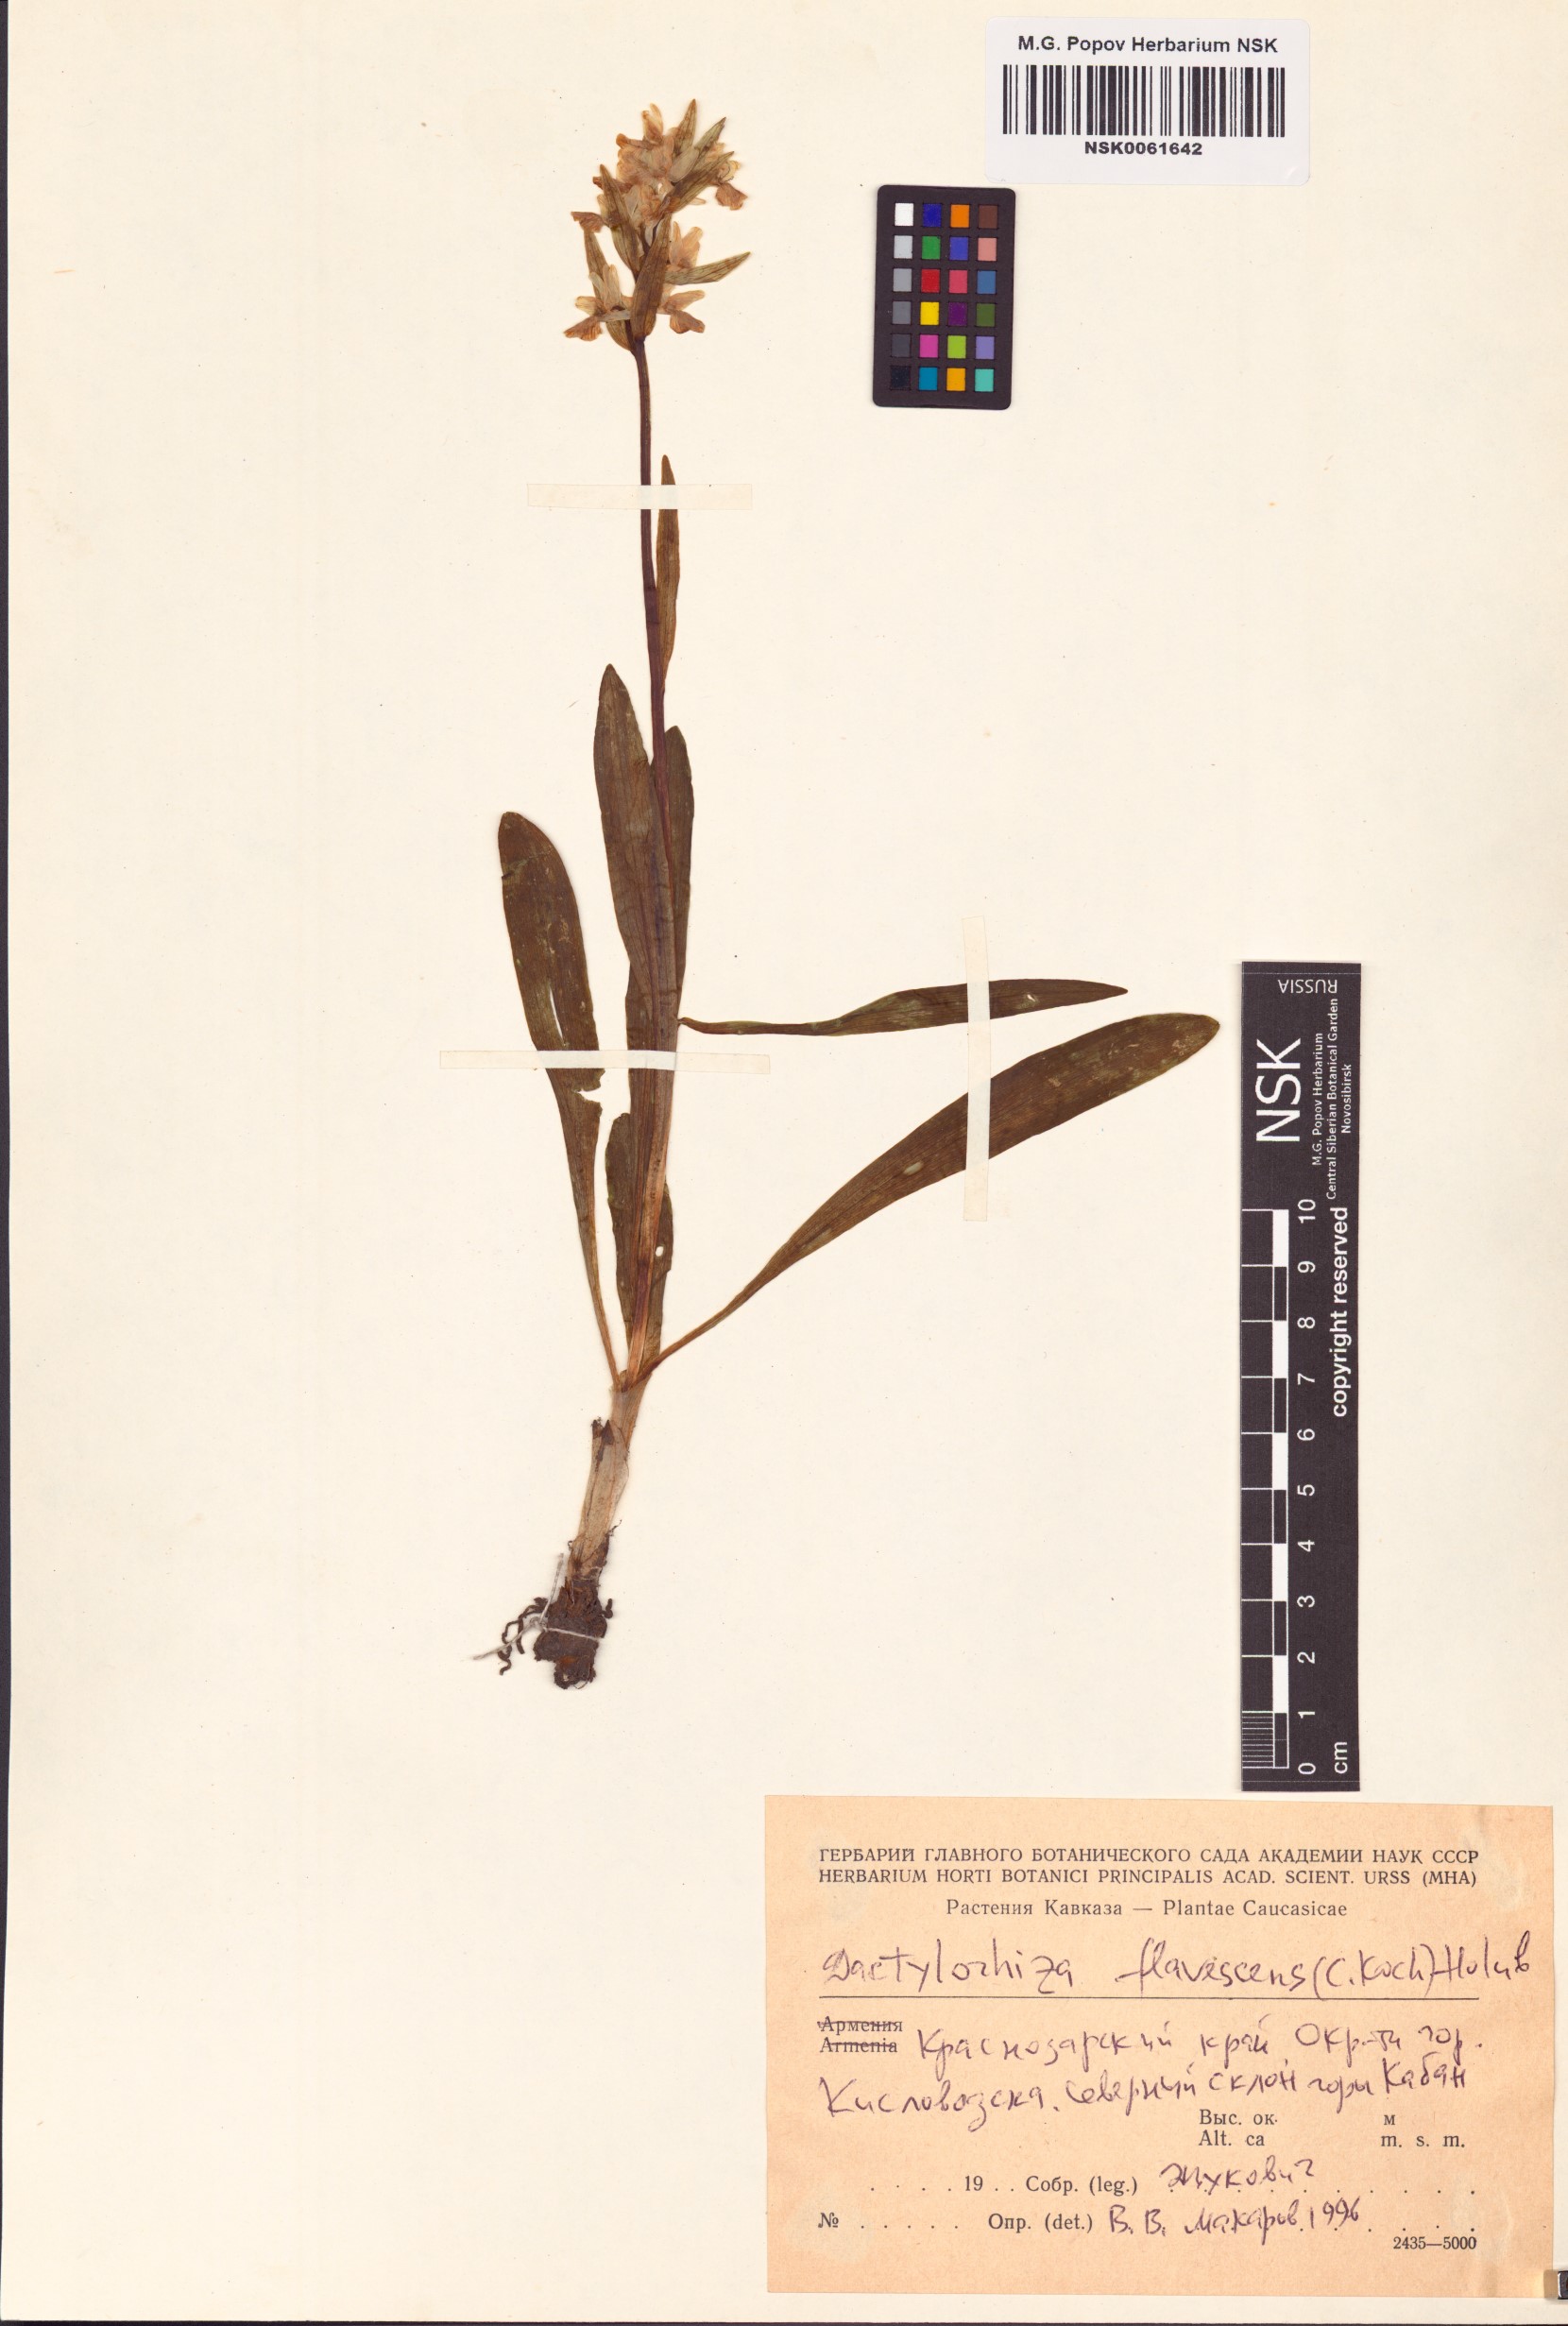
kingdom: Plantae
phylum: Tracheophyta
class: Liliopsida
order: Asparagales
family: Orchidaceae
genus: Dactylorhiza
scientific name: Dactylorhiza romana
